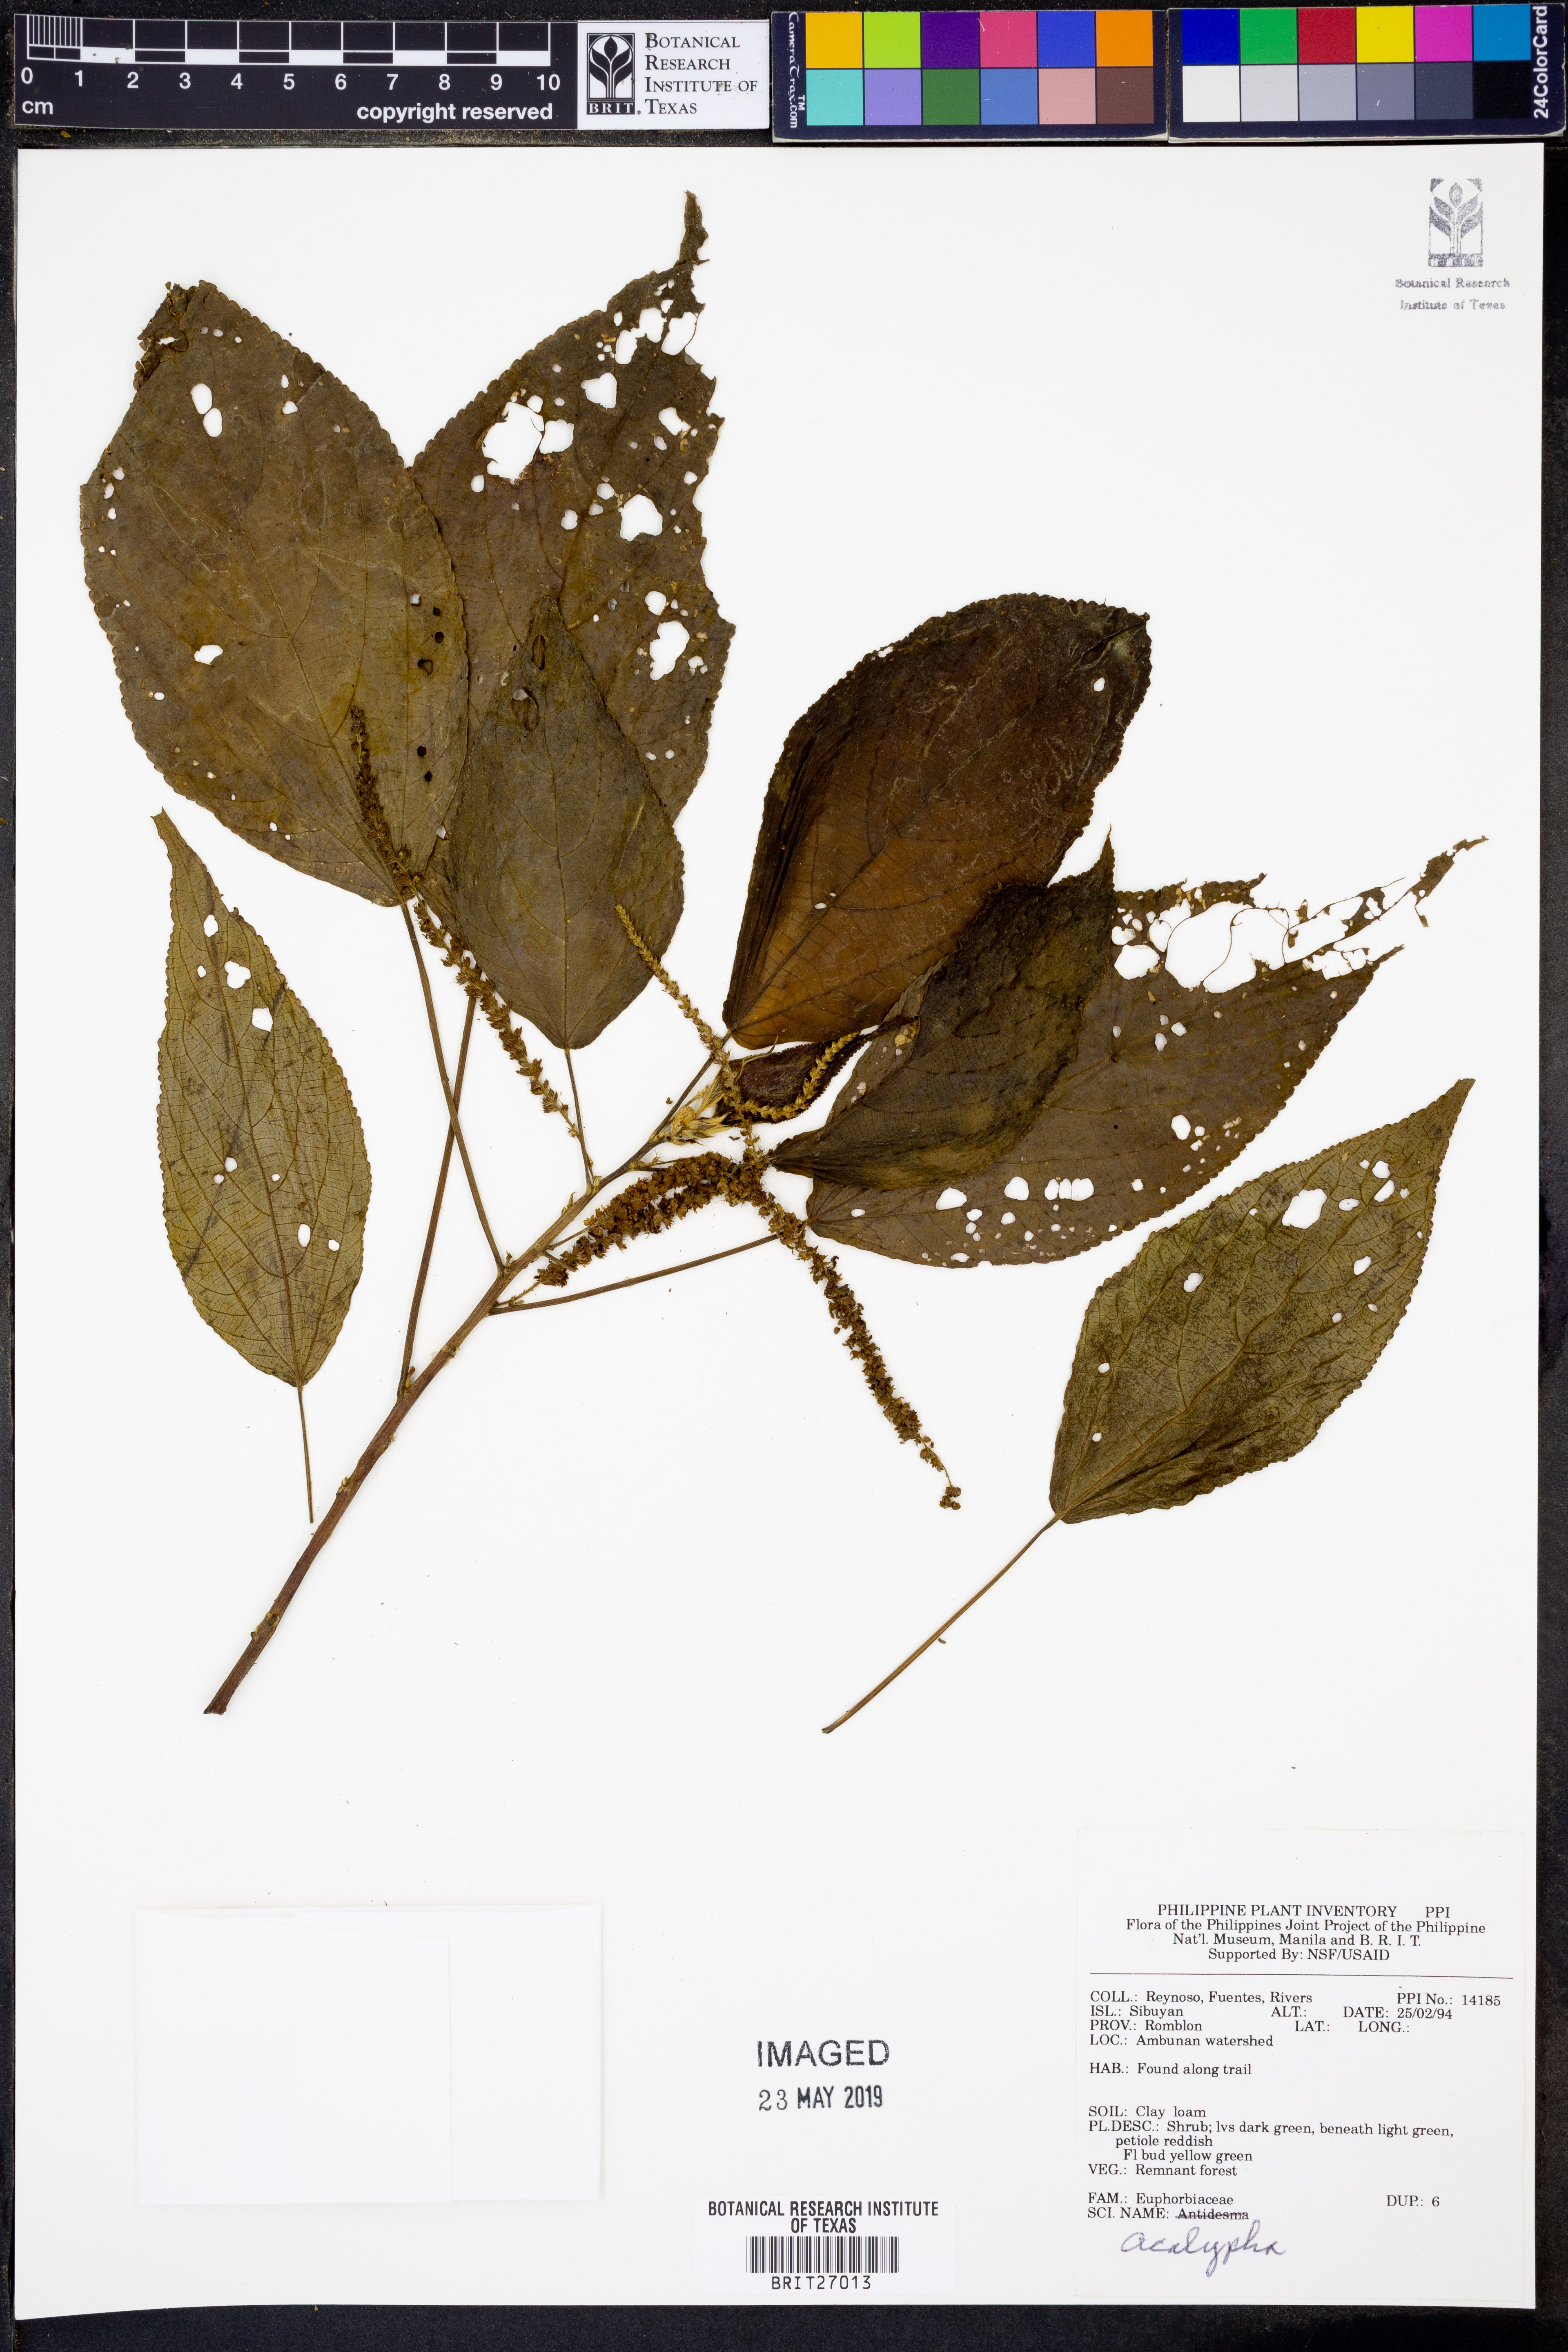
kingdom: Plantae
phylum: Tracheophyta
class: Magnoliopsida
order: Malpighiales
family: Euphorbiaceae
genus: Acalypha
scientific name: Acalypha
